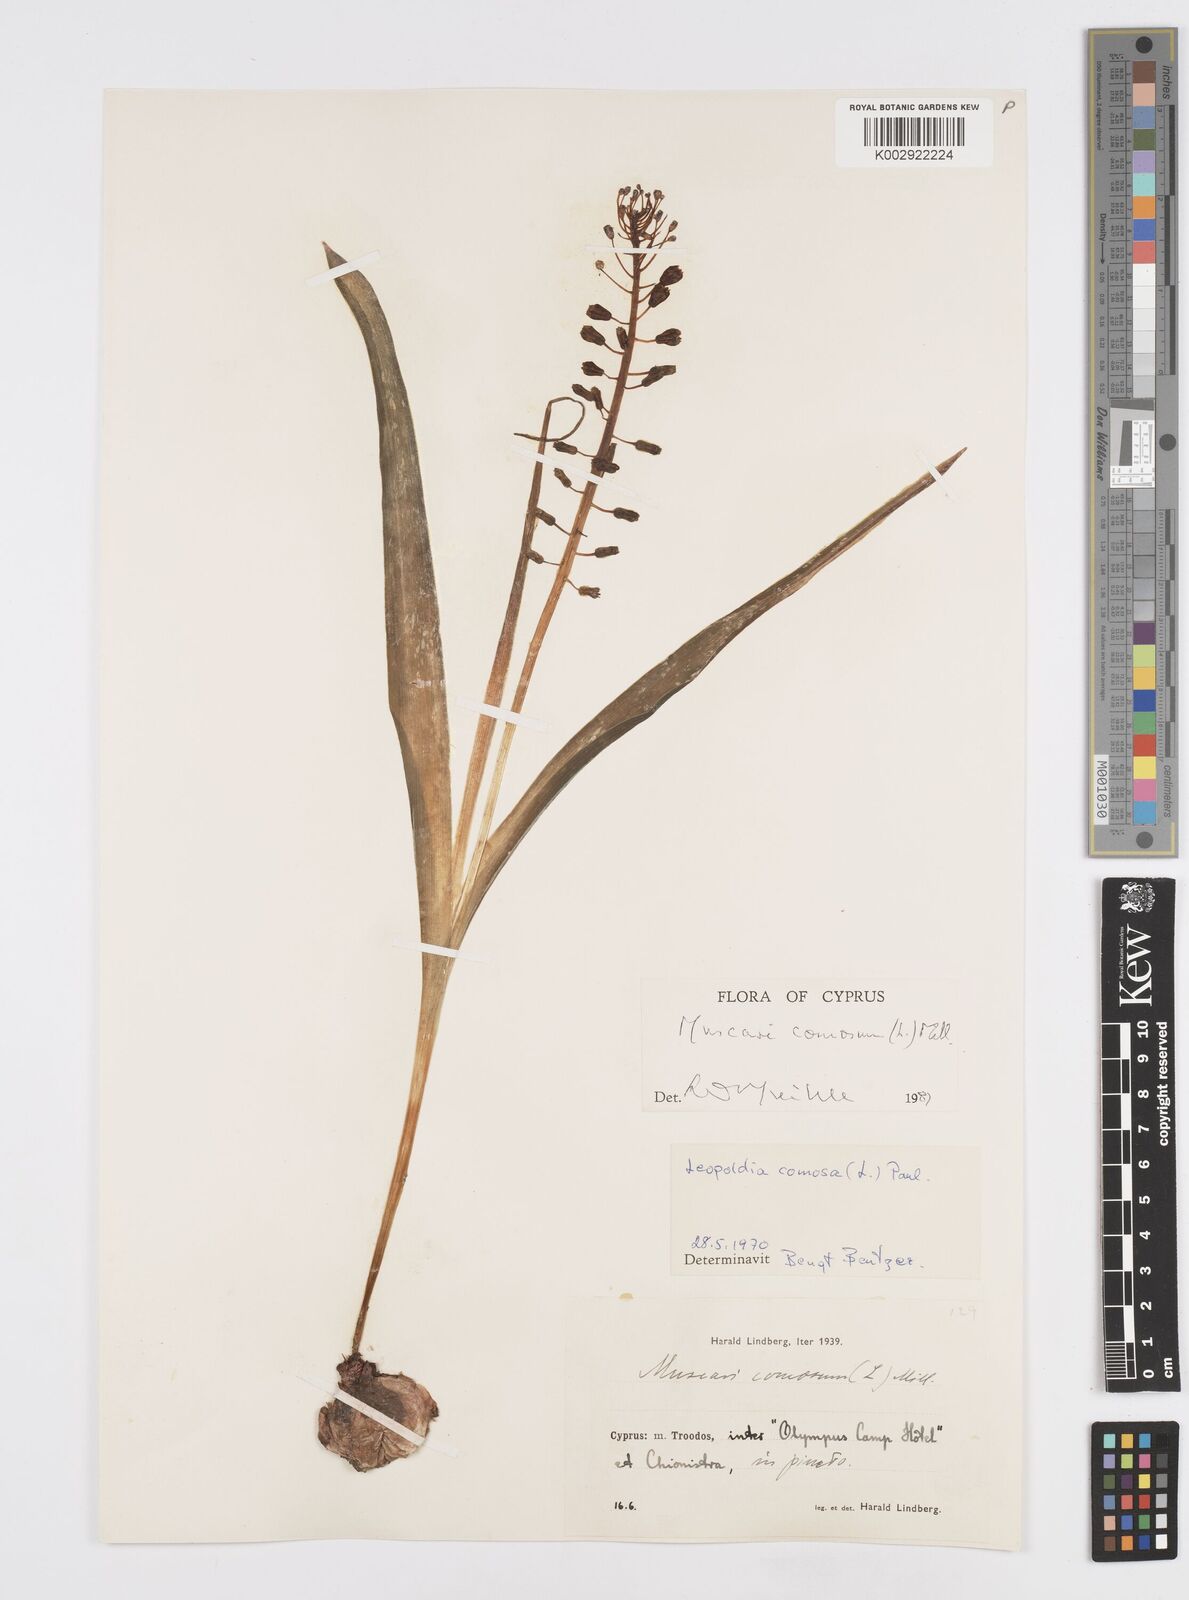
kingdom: Plantae
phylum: Tracheophyta
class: Liliopsida
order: Asparagales
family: Asparagaceae
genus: Muscari
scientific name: Muscari comosum
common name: Tassel hyacinth
